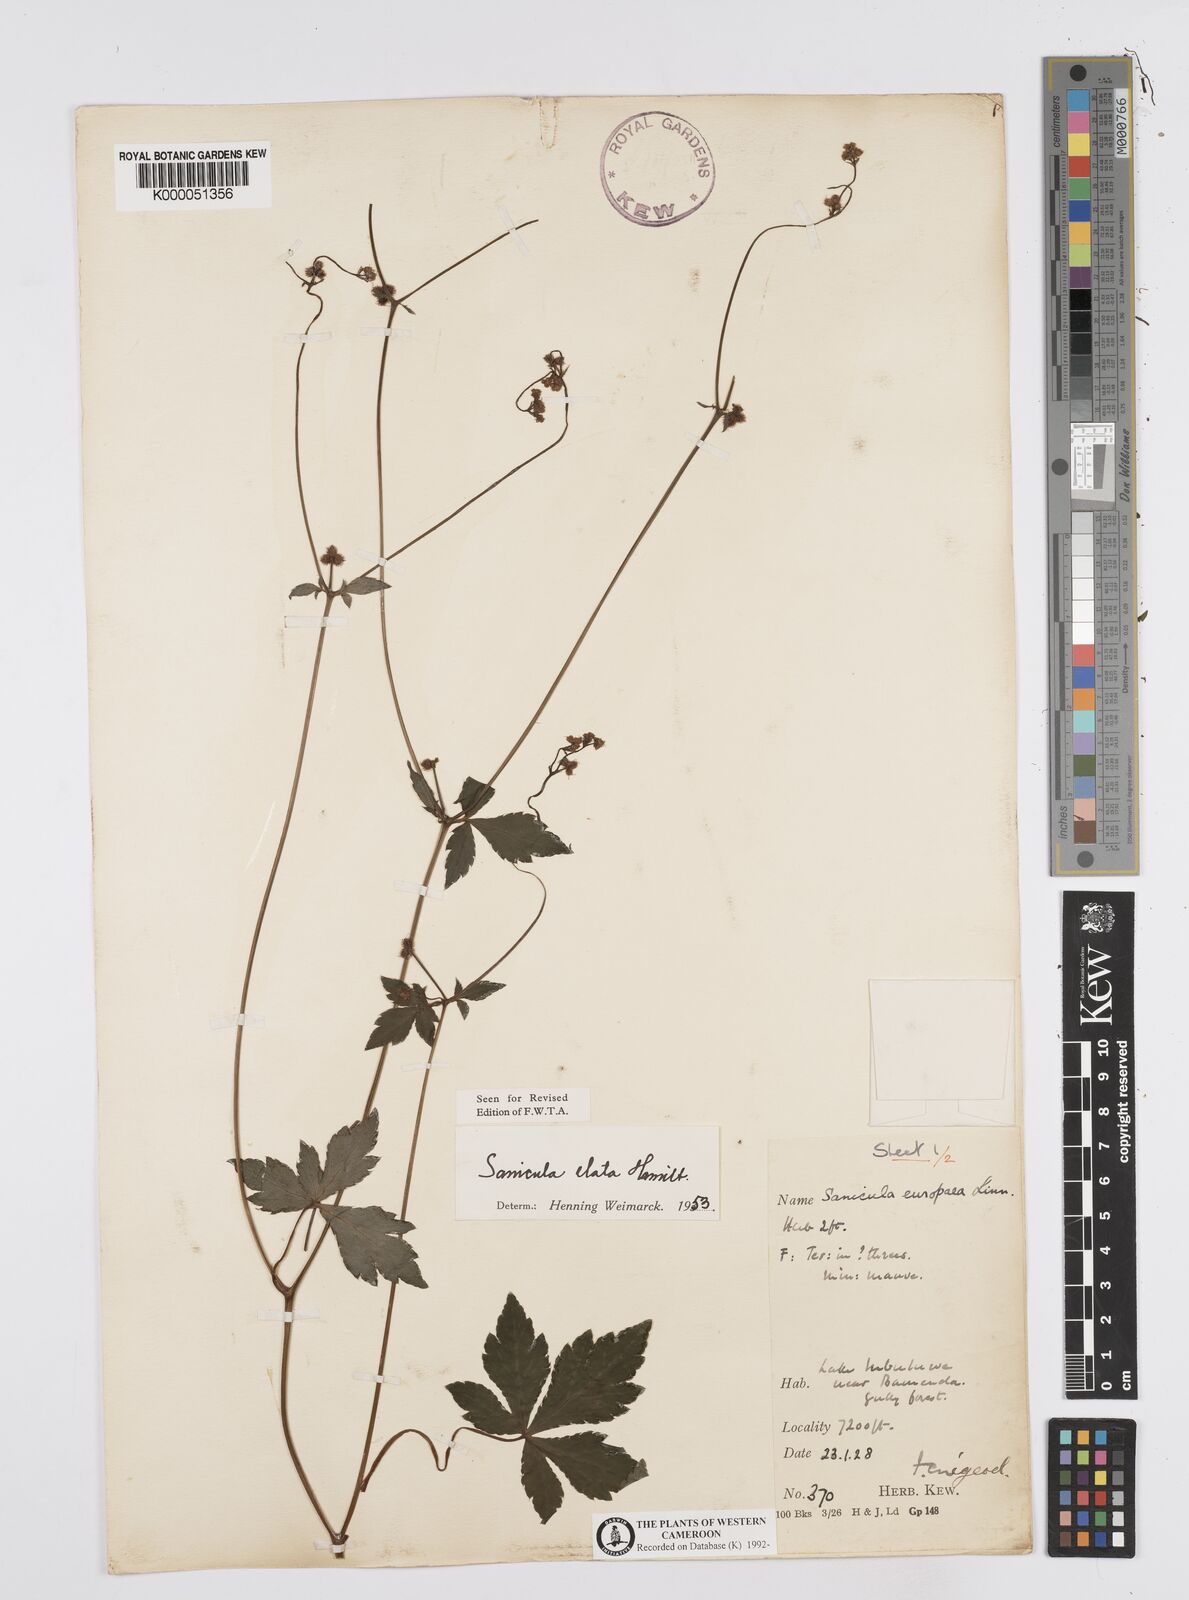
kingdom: Plantae
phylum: Tracheophyta
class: Magnoliopsida
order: Apiales
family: Apiaceae
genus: Sanicula
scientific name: Sanicula
